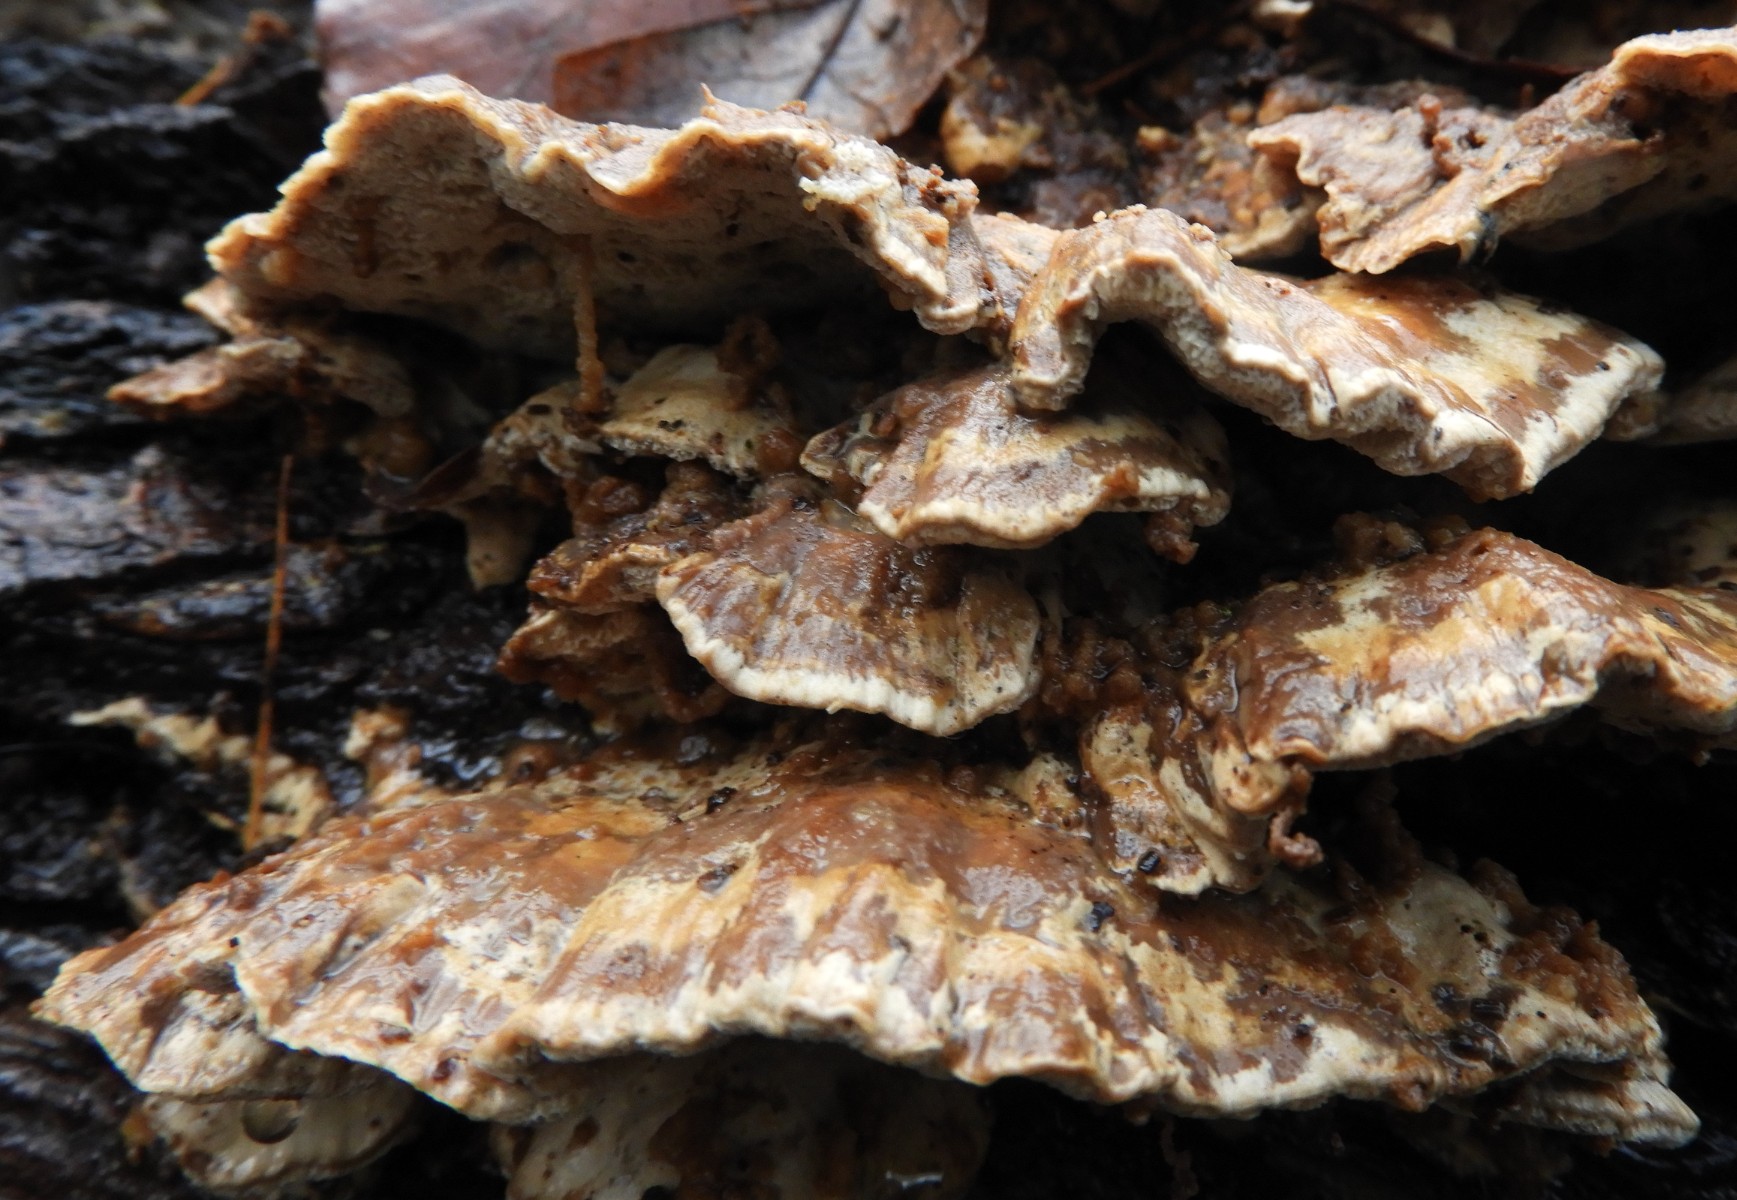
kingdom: Fungi
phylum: Basidiomycota
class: Agaricomycetes
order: Polyporales
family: Phanerochaetaceae
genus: Bjerkandera
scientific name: Bjerkandera fumosa
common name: grågul sodporesvamp
